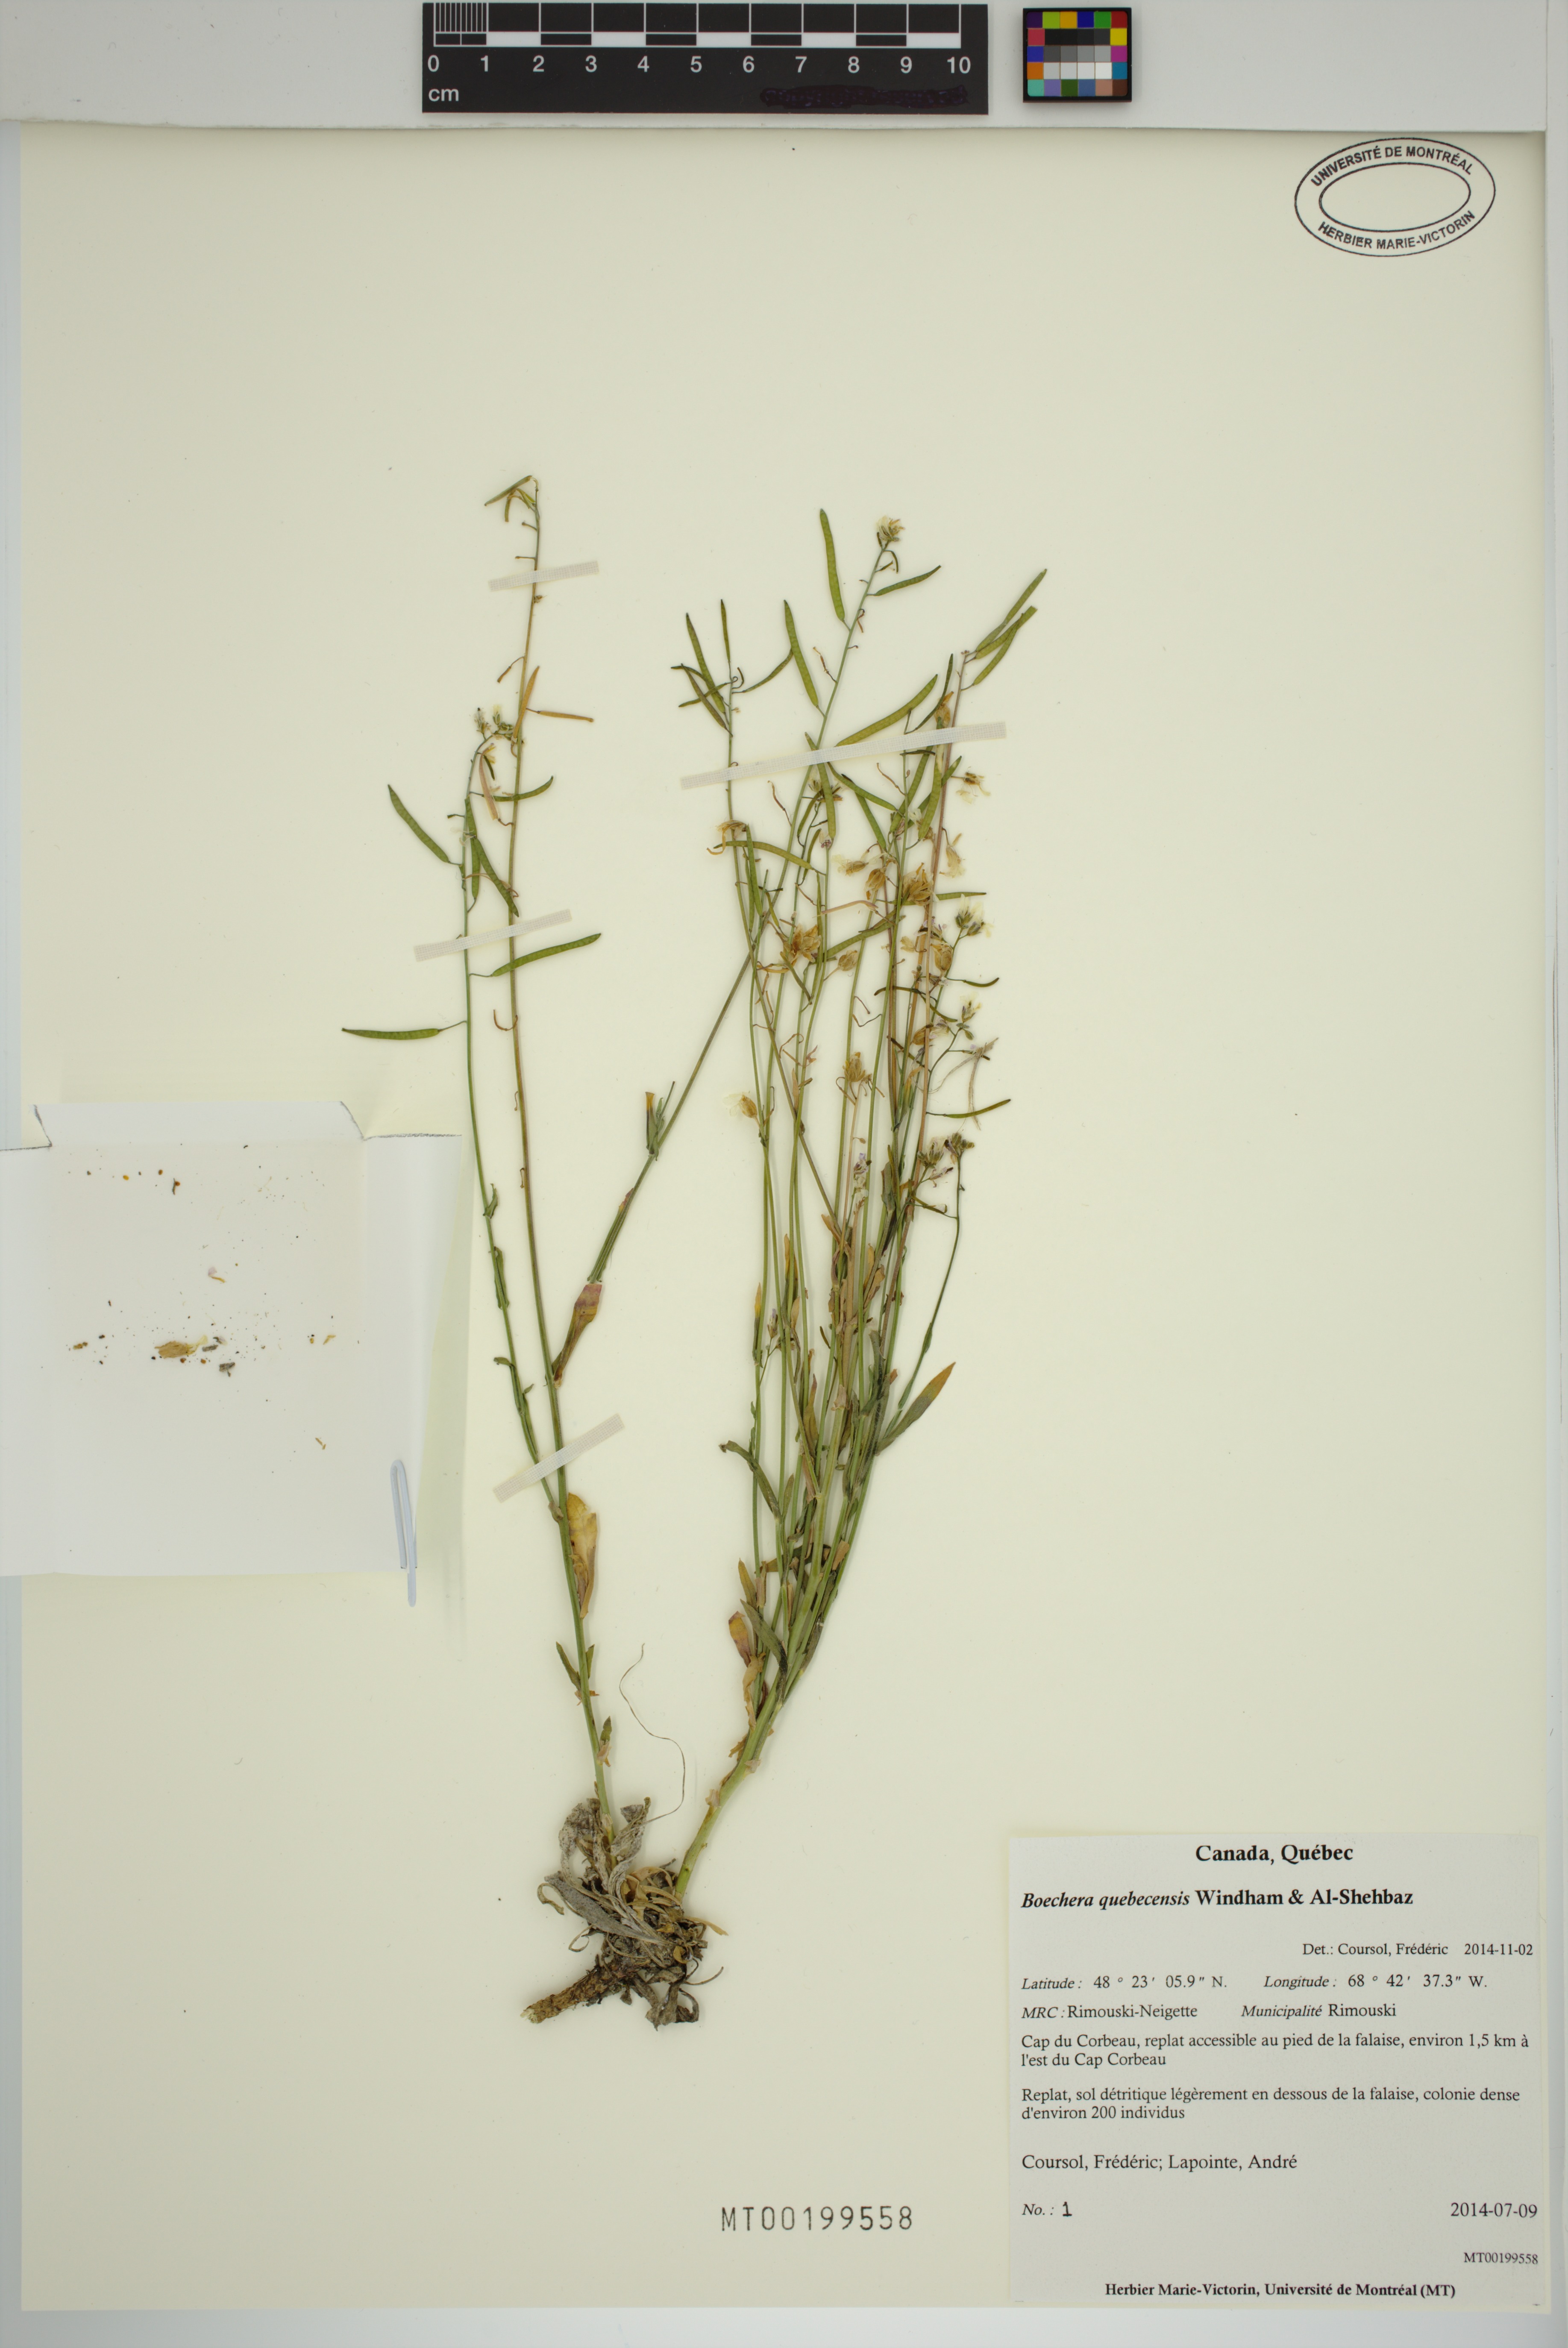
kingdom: Plantae
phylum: Tracheophyta
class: Magnoliopsida
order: Brassicales
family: Brassicaceae
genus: Boechera
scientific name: Boechera
